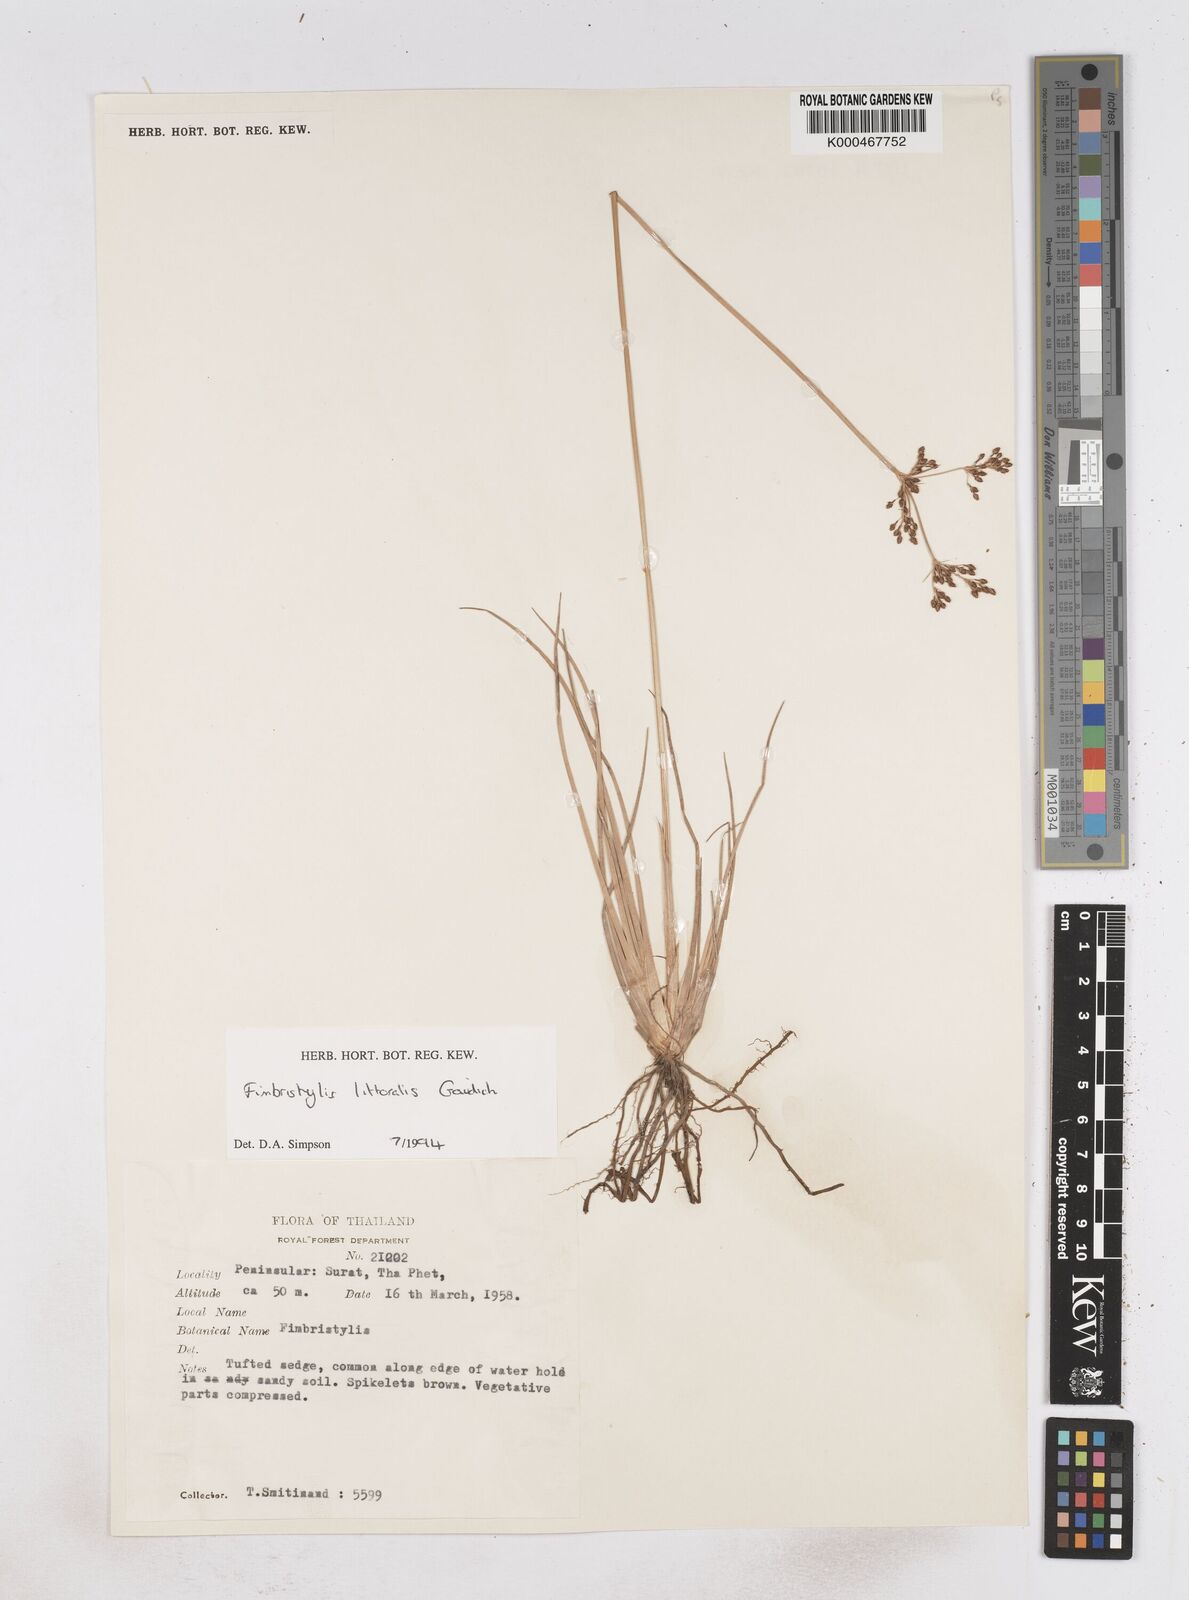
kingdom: Plantae
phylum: Tracheophyta
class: Liliopsida
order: Poales
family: Cyperaceae
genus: Fimbristylis
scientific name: Fimbristylis littoralis
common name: Fimbry
